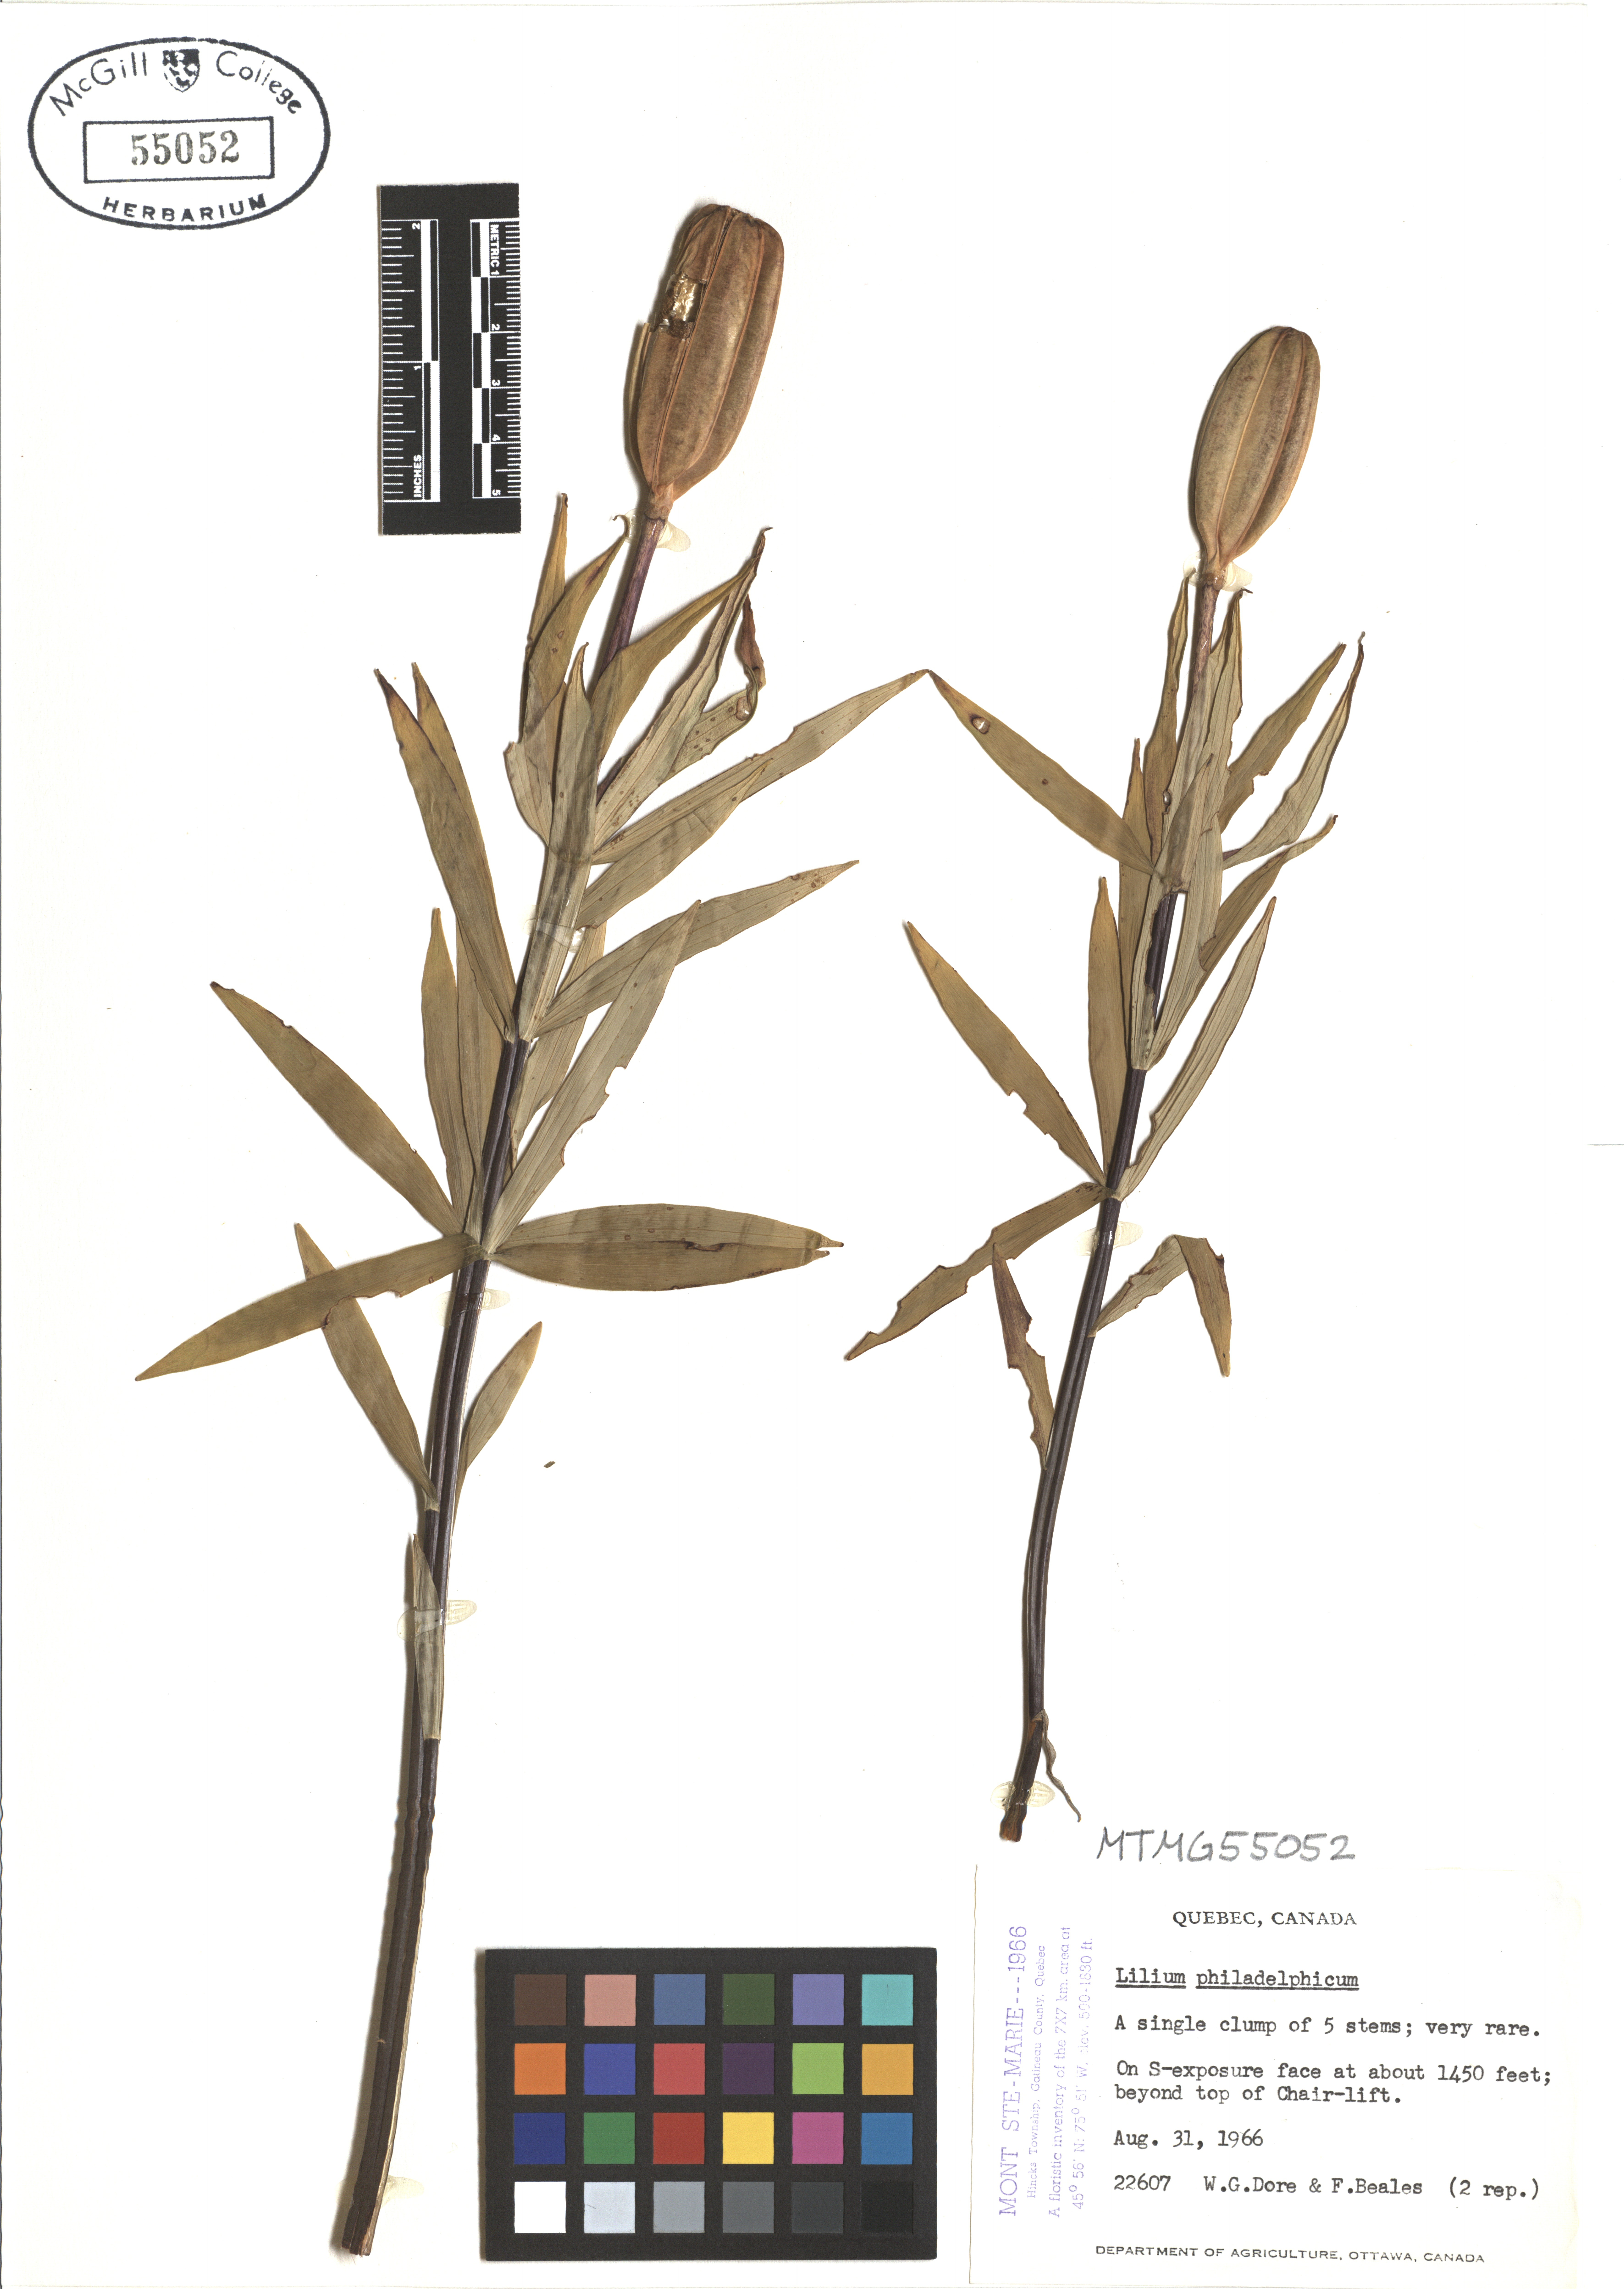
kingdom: Plantae
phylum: Tracheophyta
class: Liliopsida
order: Liliales
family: Liliaceae
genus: Lilium
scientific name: Lilium philadelphicum
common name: Red lily
